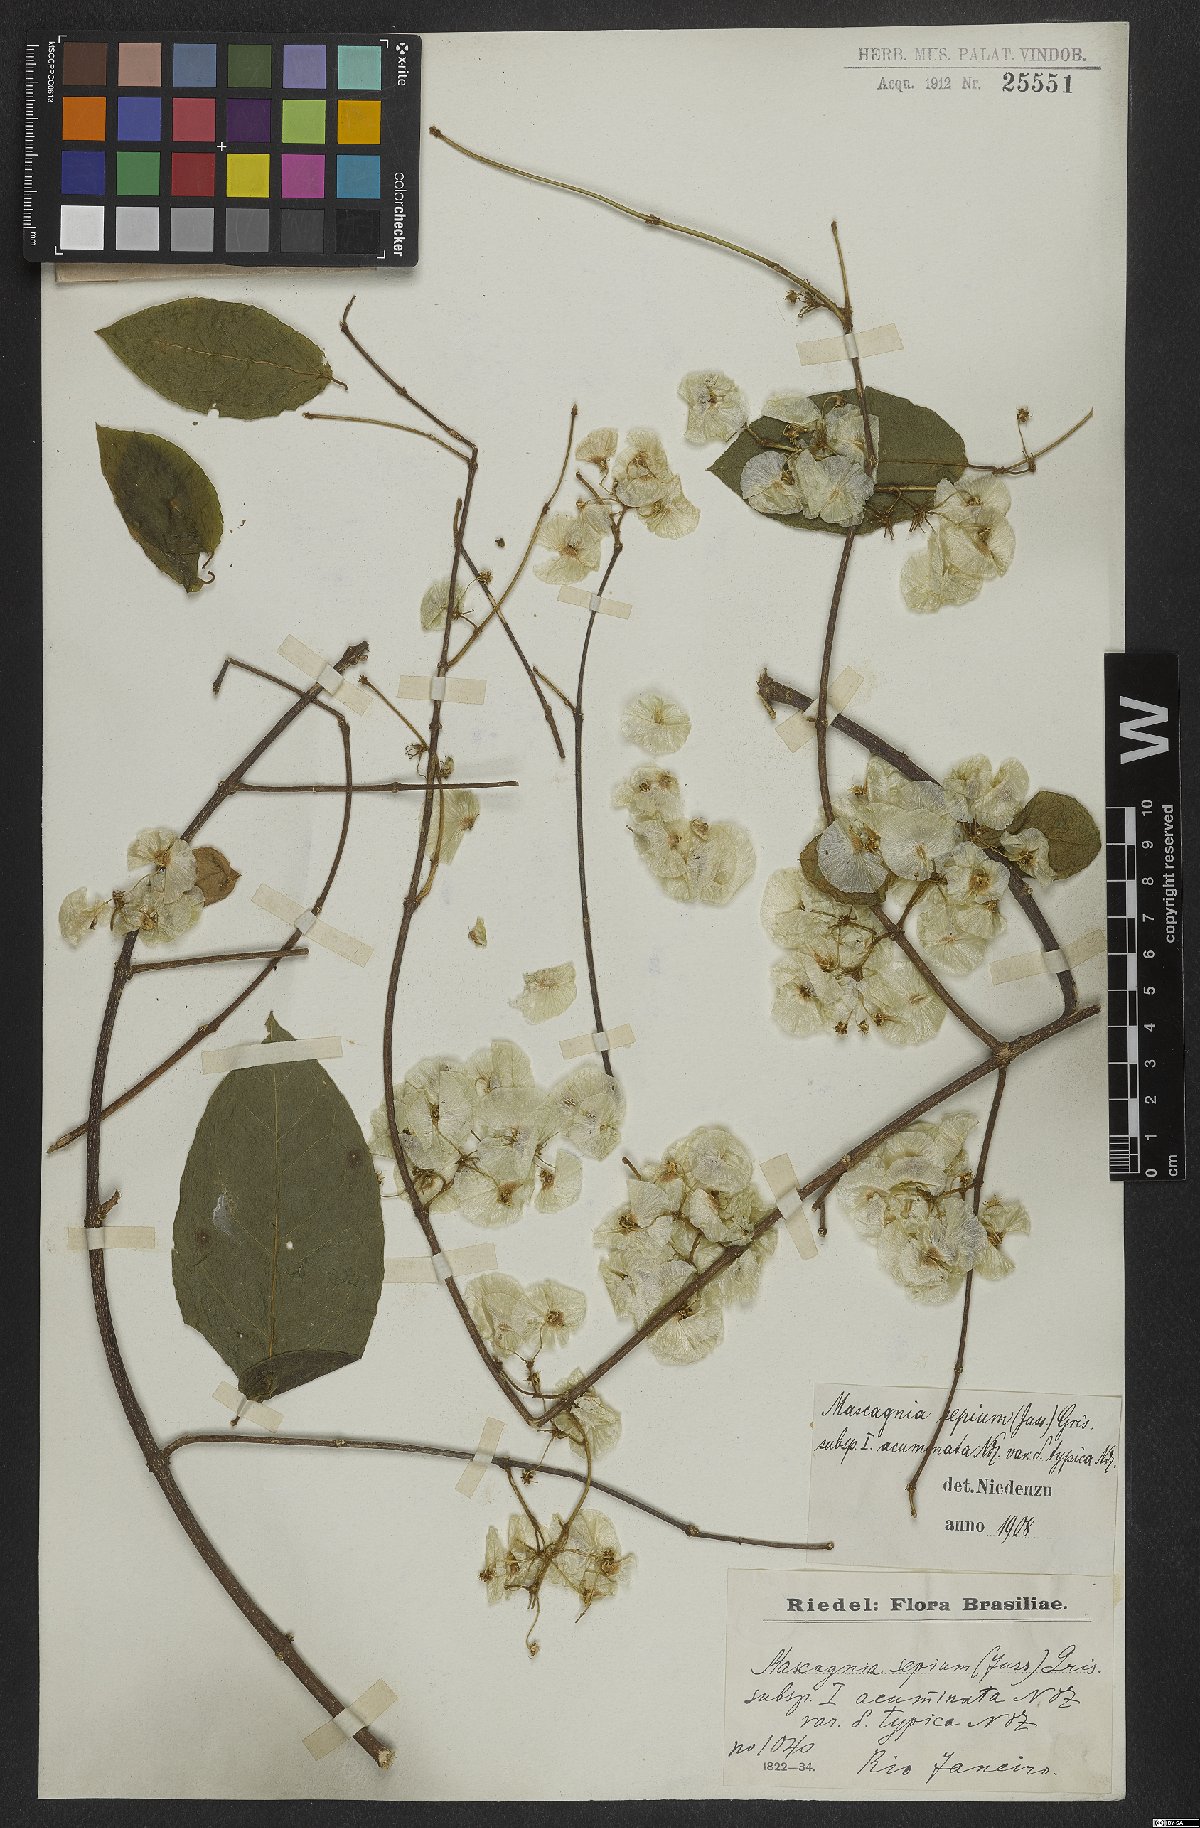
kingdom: Plantae
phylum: Tracheophyta
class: Magnoliopsida
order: Malpighiales
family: Malpighiaceae
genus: Mascagnia
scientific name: Mascagnia sepium
